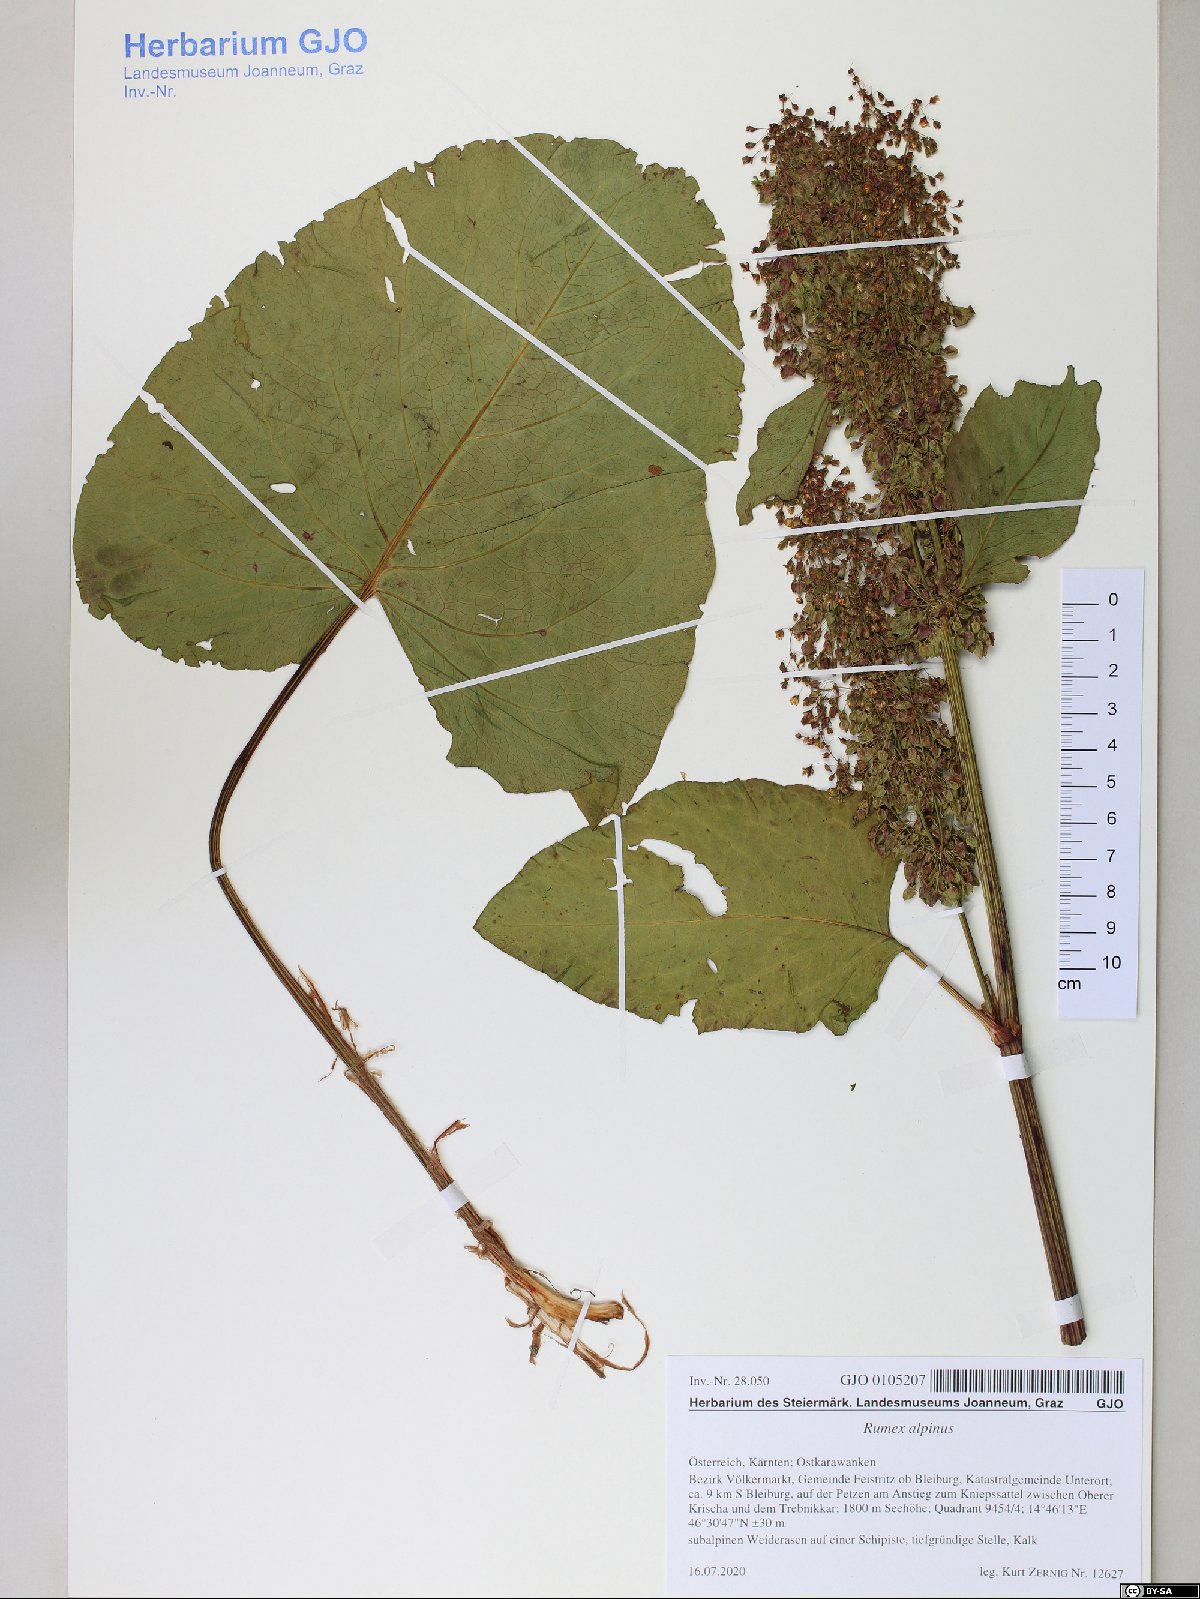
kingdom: Plantae
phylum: Tracheophyta
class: Magnoliopsida
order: Caryophyllales
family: Polygonaceae
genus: Rumex
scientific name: Rumex alpinus
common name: Alpine dock
